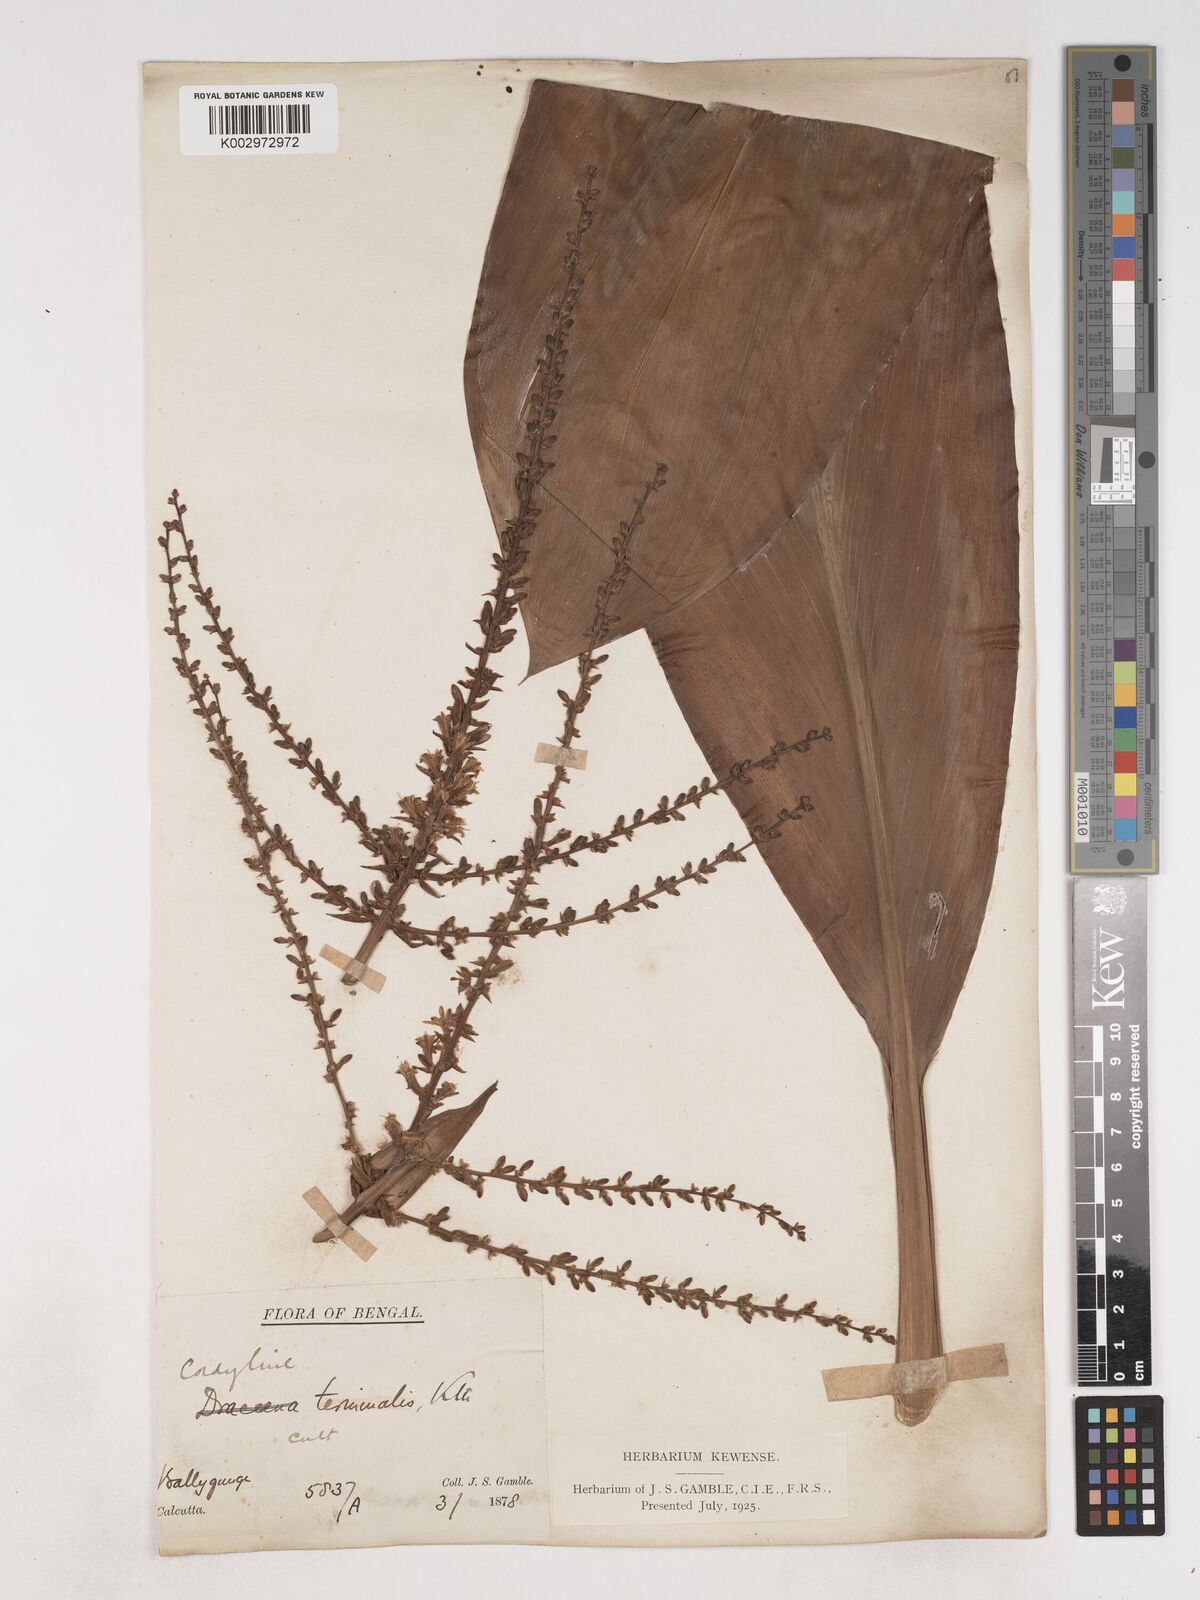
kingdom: Plantae
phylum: Tracheophyta
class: Liliopsida
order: Asparagales
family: Asparagaceae
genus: Cordyline
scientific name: Cordyline fruticosa
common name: Good-luck-plant
